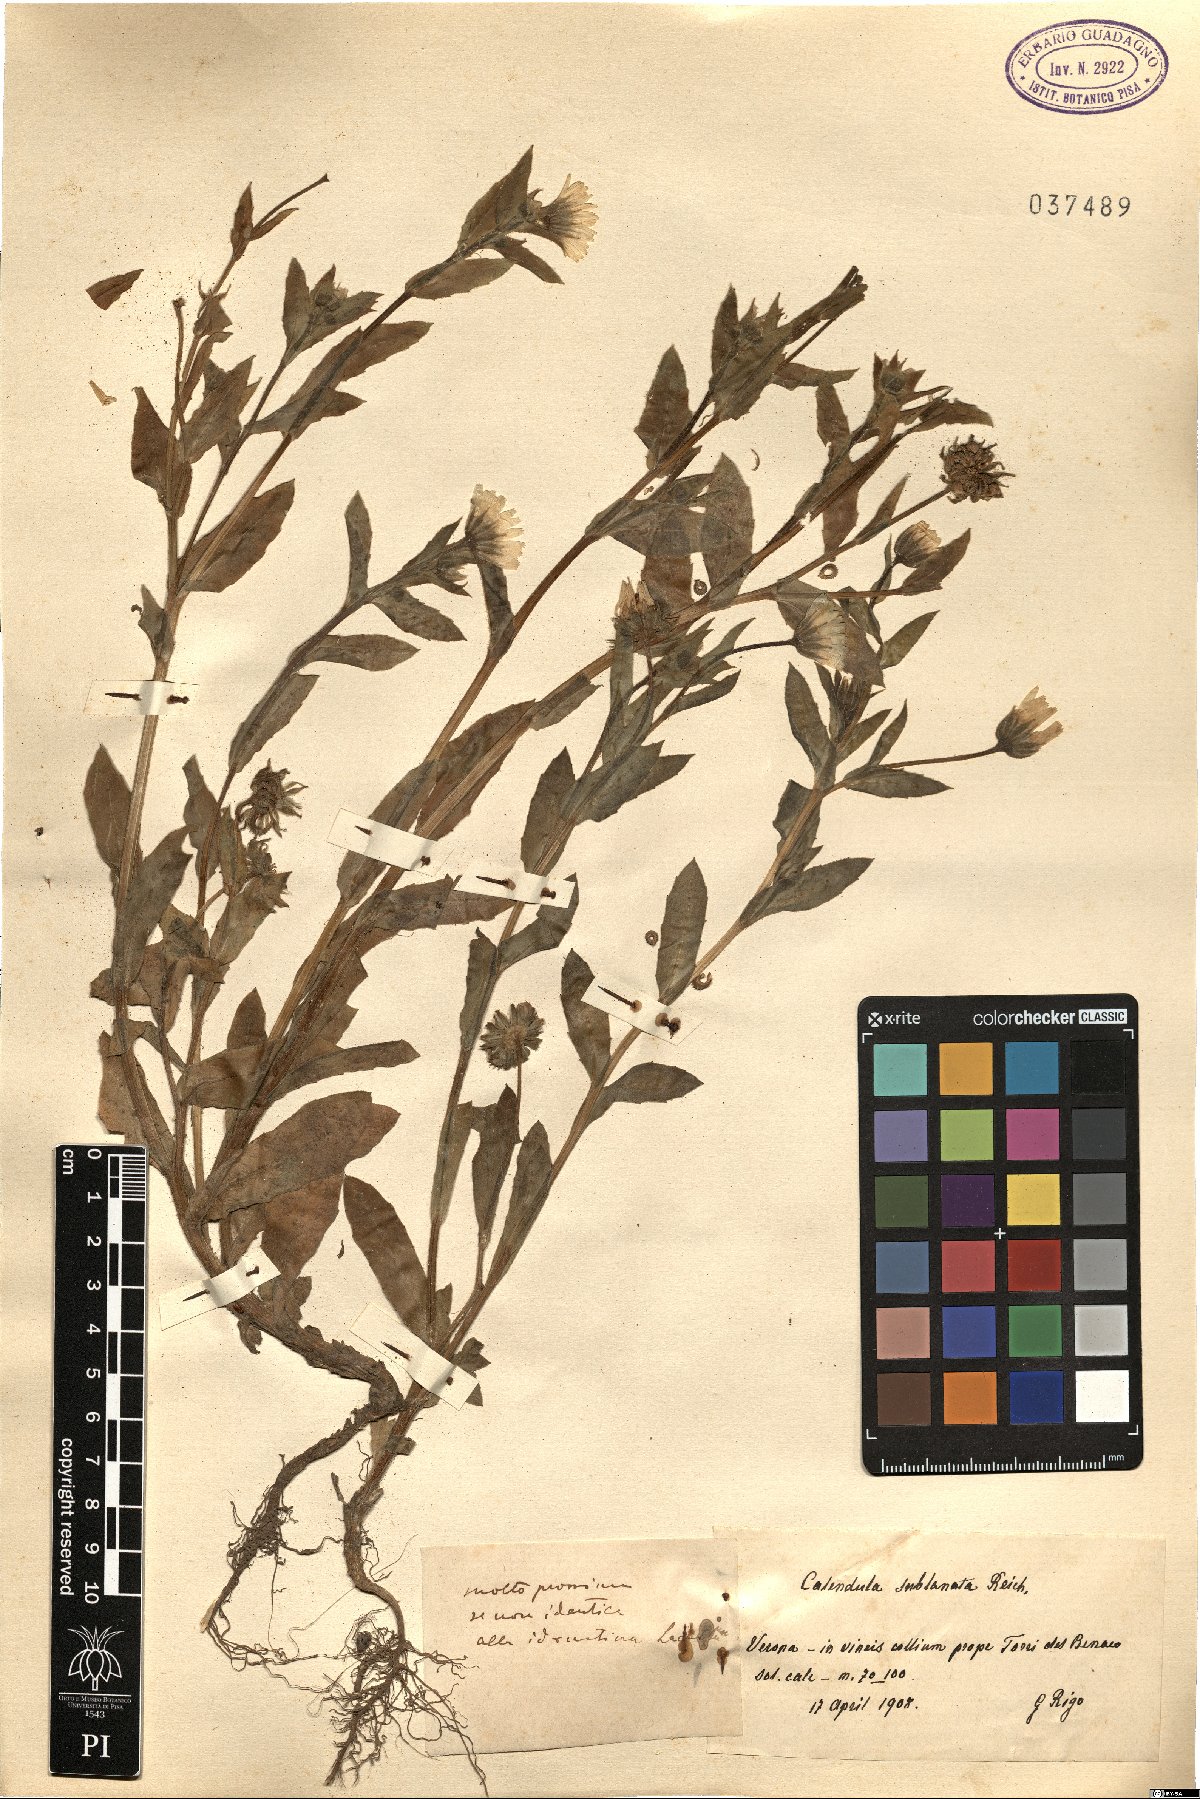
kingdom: Plantae
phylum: Tracheophyta
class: Magnoliopsida
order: Asterales
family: Asteraceae
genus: Calendula
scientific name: Calendula arvensis
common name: Field marigold
